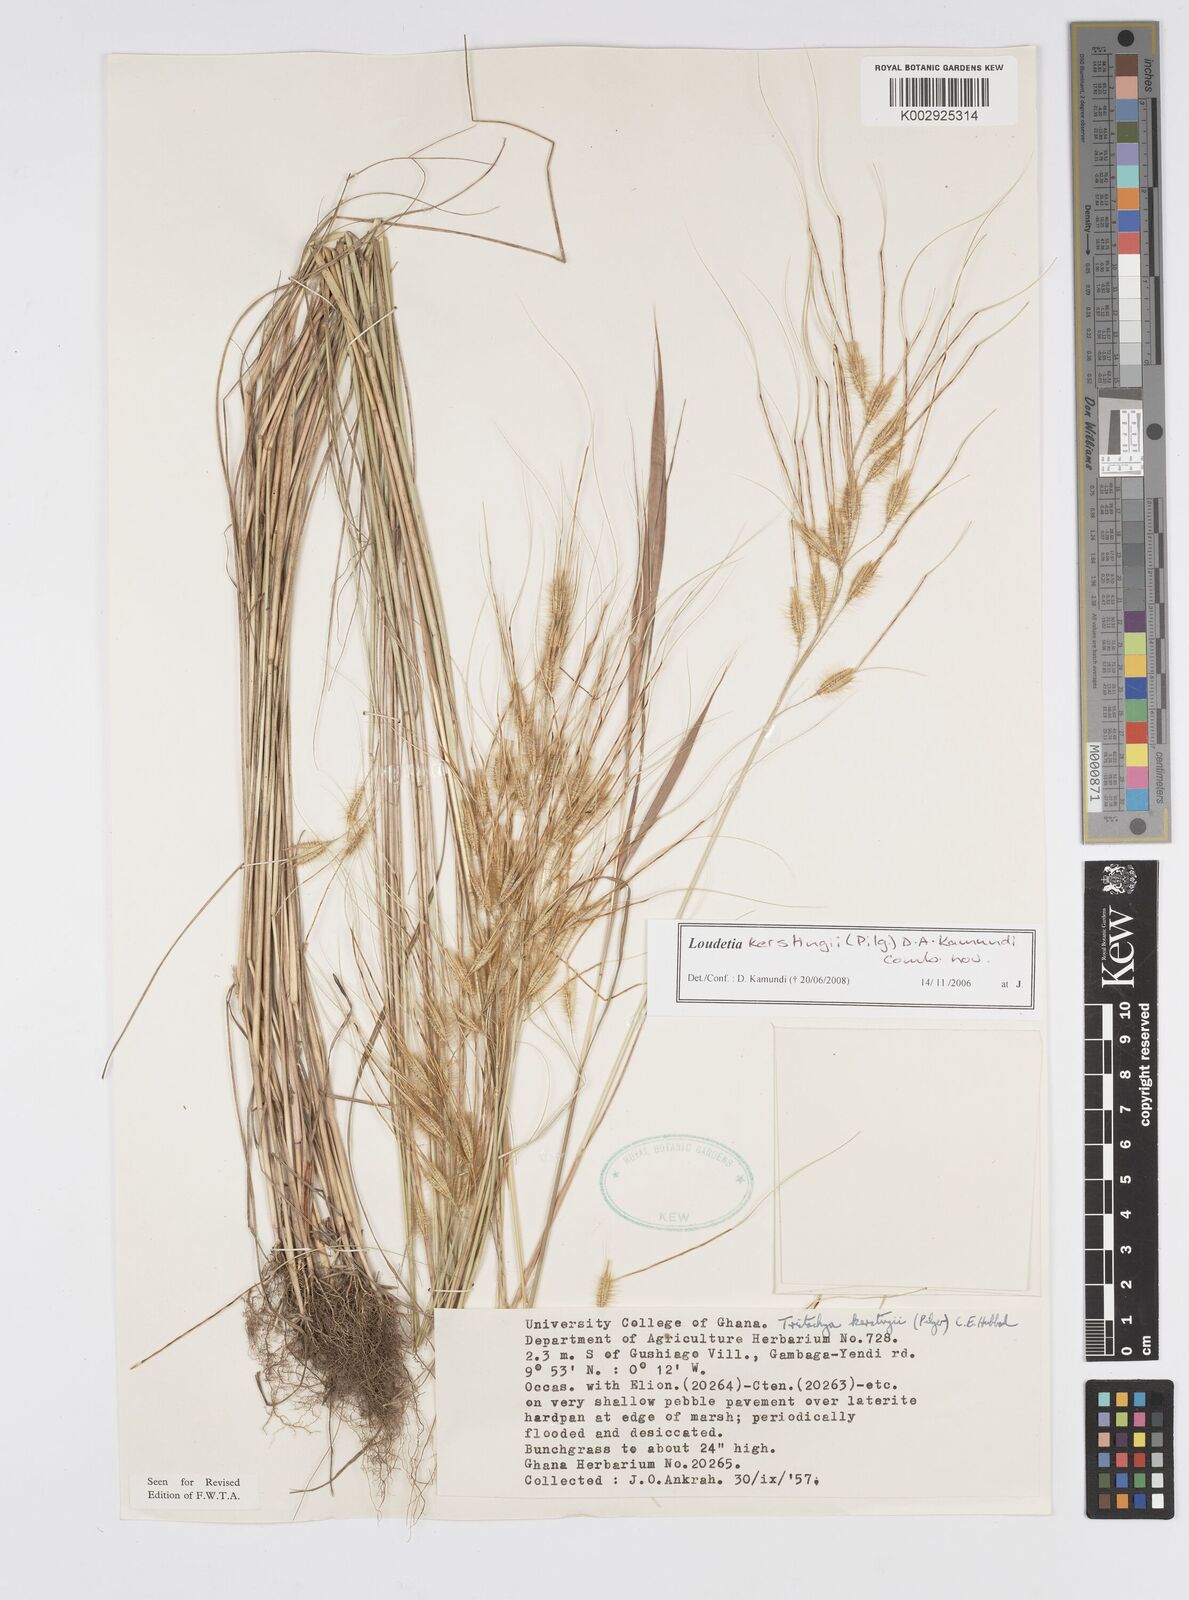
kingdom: Plantae
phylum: Tracheophyta
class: Liliopsida
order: Poales
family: Poaceae
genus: Loudetiopsis
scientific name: Loudetiopsis kerstingii
